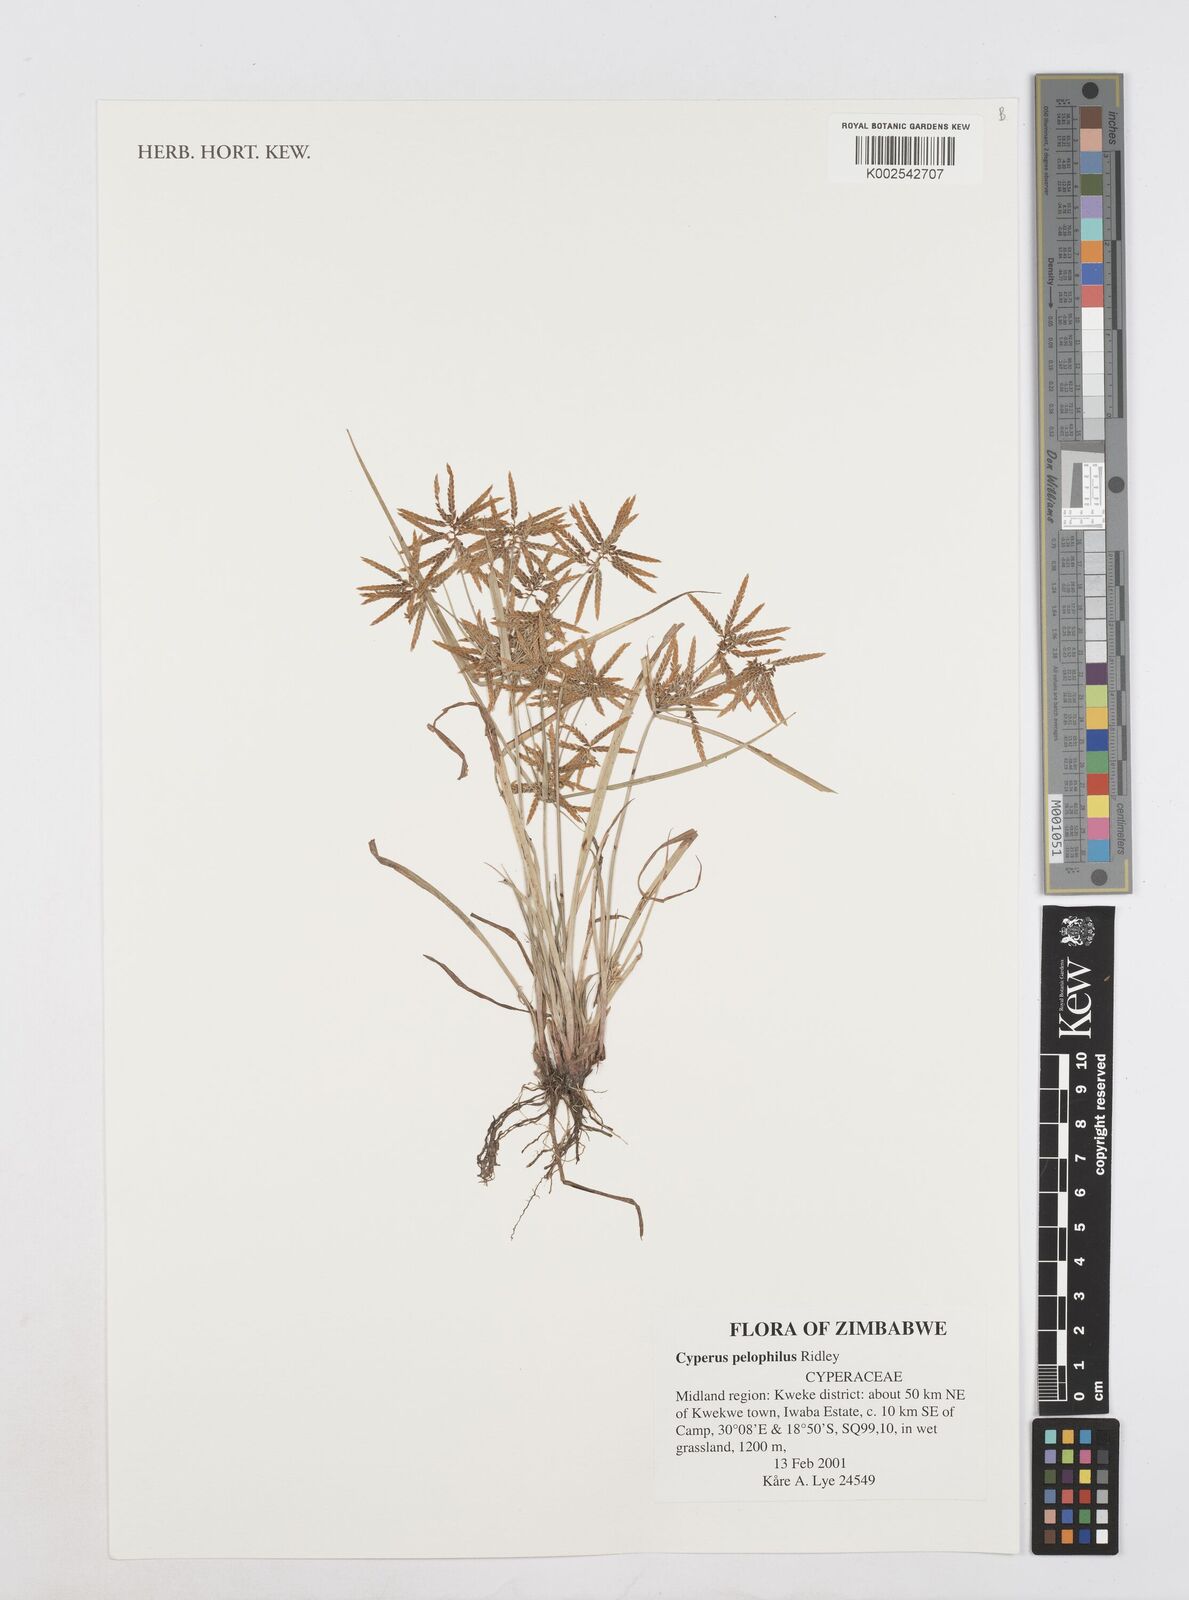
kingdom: Plantae
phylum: Tracheophyta
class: Liliopsida
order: Poales
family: Cyperaceae
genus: Cyperus
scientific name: Cyperus pelophilus
